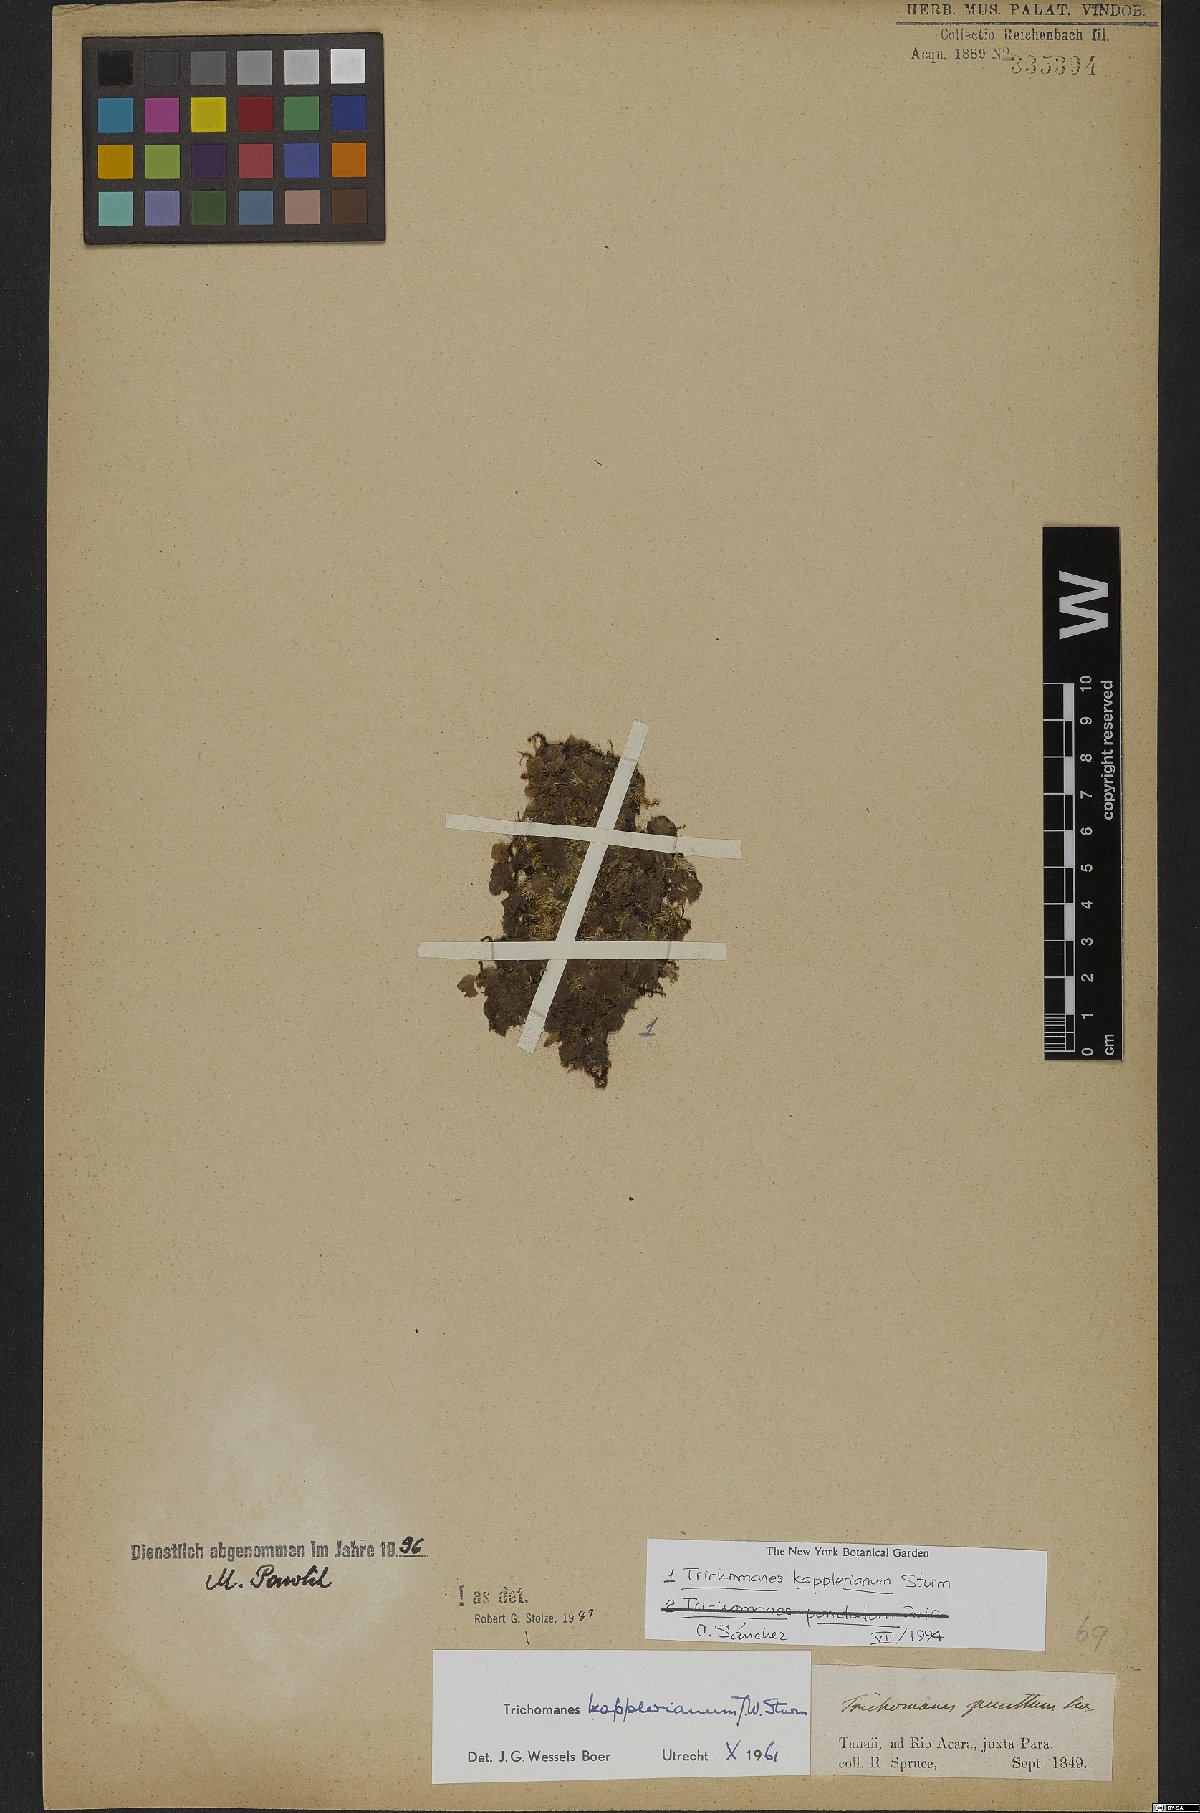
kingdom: Plantae
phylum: Tracheophyta
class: Polypodiopsida
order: Hymenophyllales
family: Hymenophyllaceae
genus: Didymoglossum
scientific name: Didymoglossum kapplerianum
